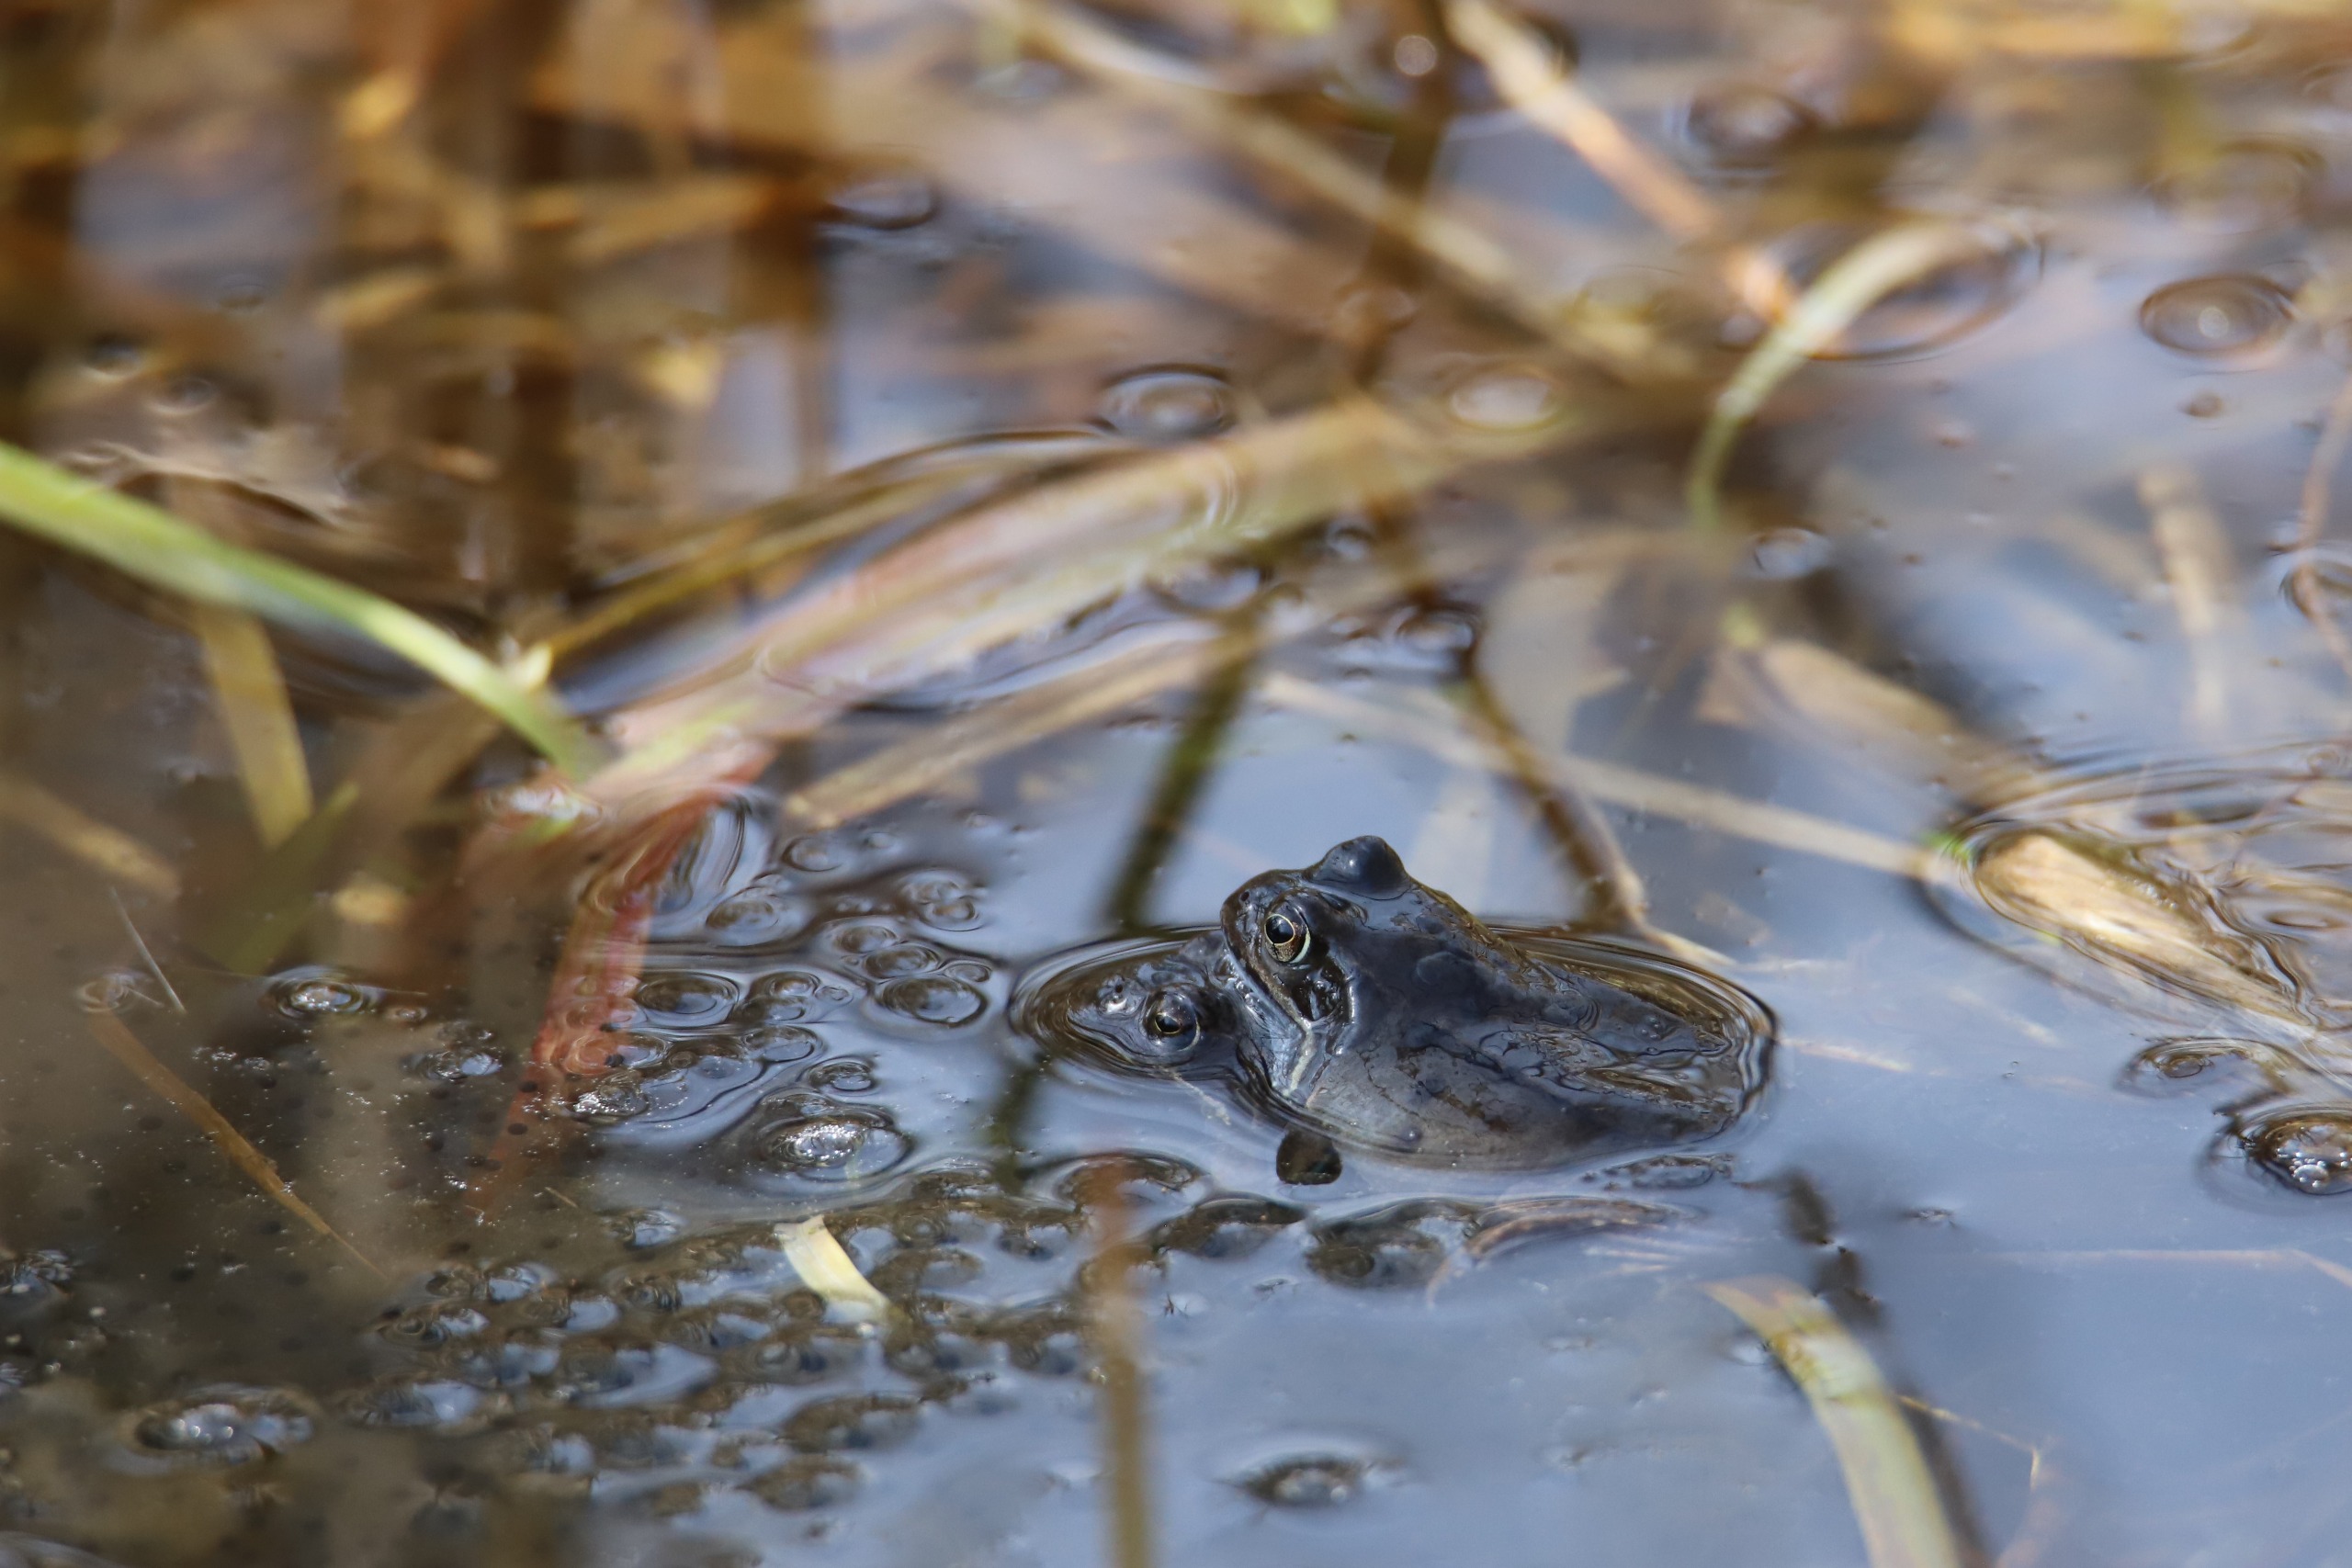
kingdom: Animalia
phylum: Chordata
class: Amphibia
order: Anura
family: Ranidae
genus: Rana
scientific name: Rana temporaria
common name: Butsnudet frø
